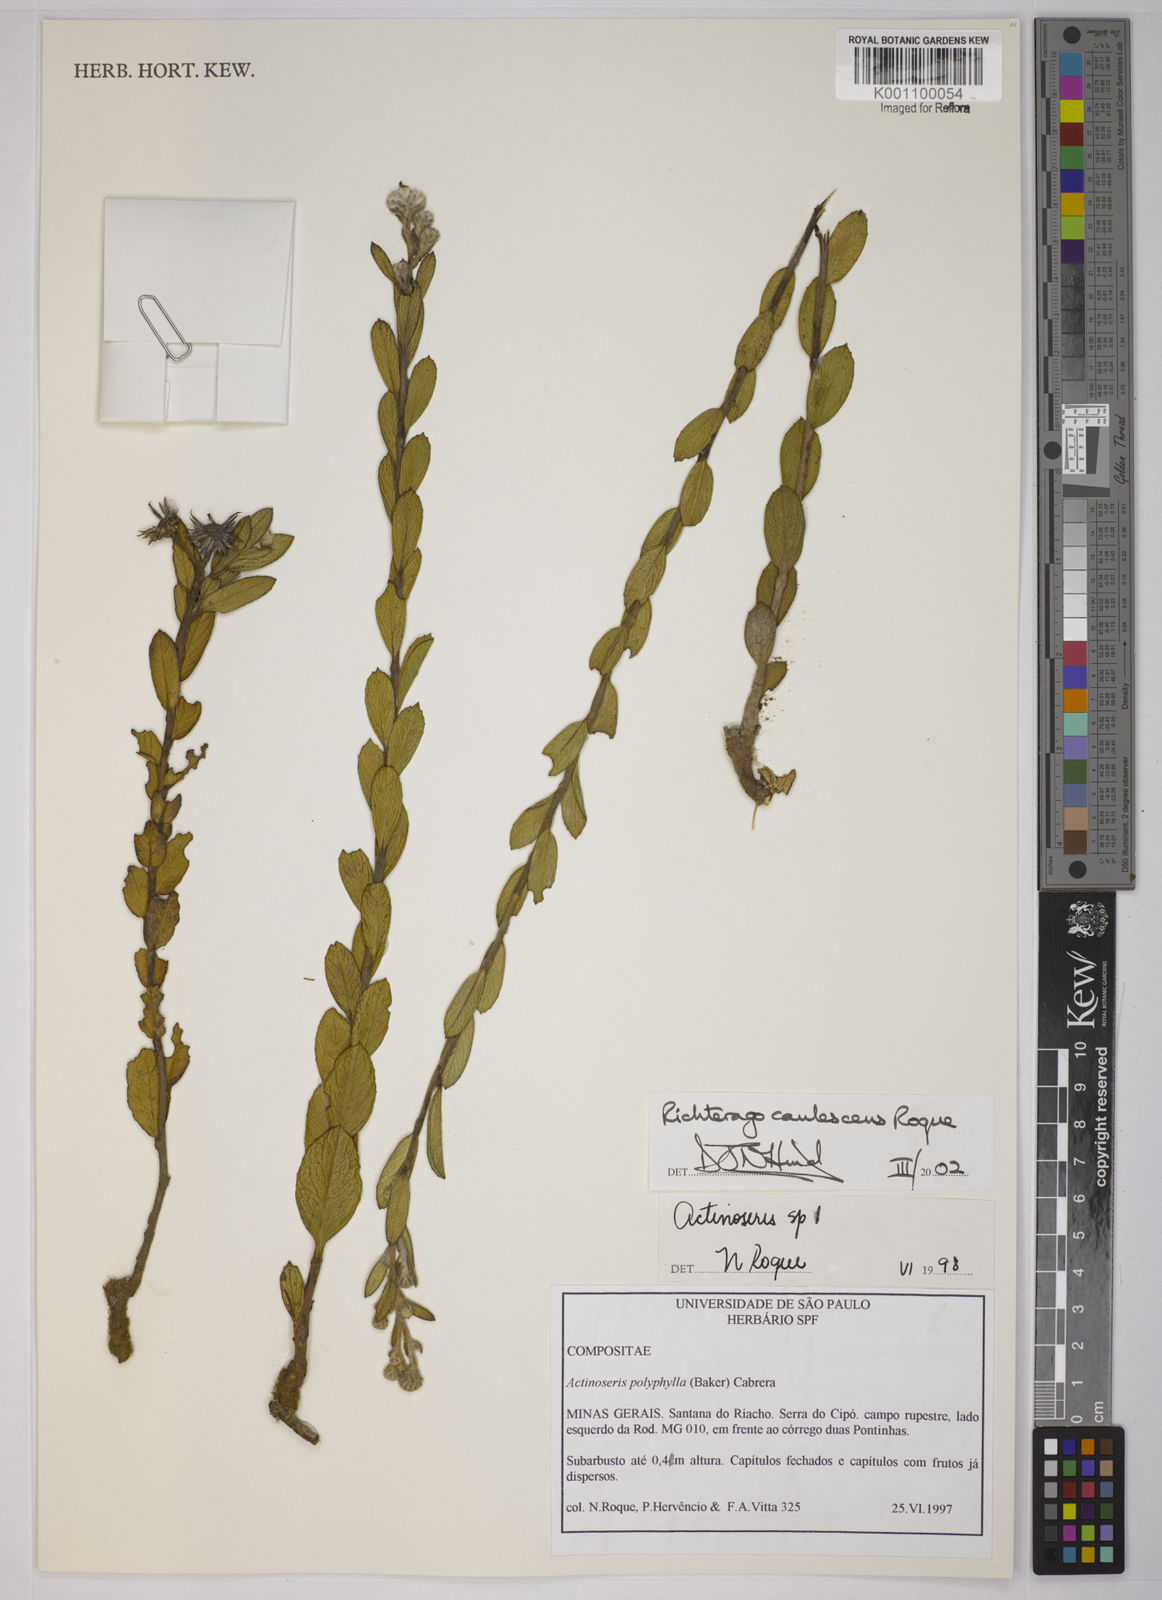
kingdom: Plantae
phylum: Tracheophyta
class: Magnoliopsida
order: Asterales
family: Asteraceae
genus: Richterago
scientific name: Richterago caulescens
